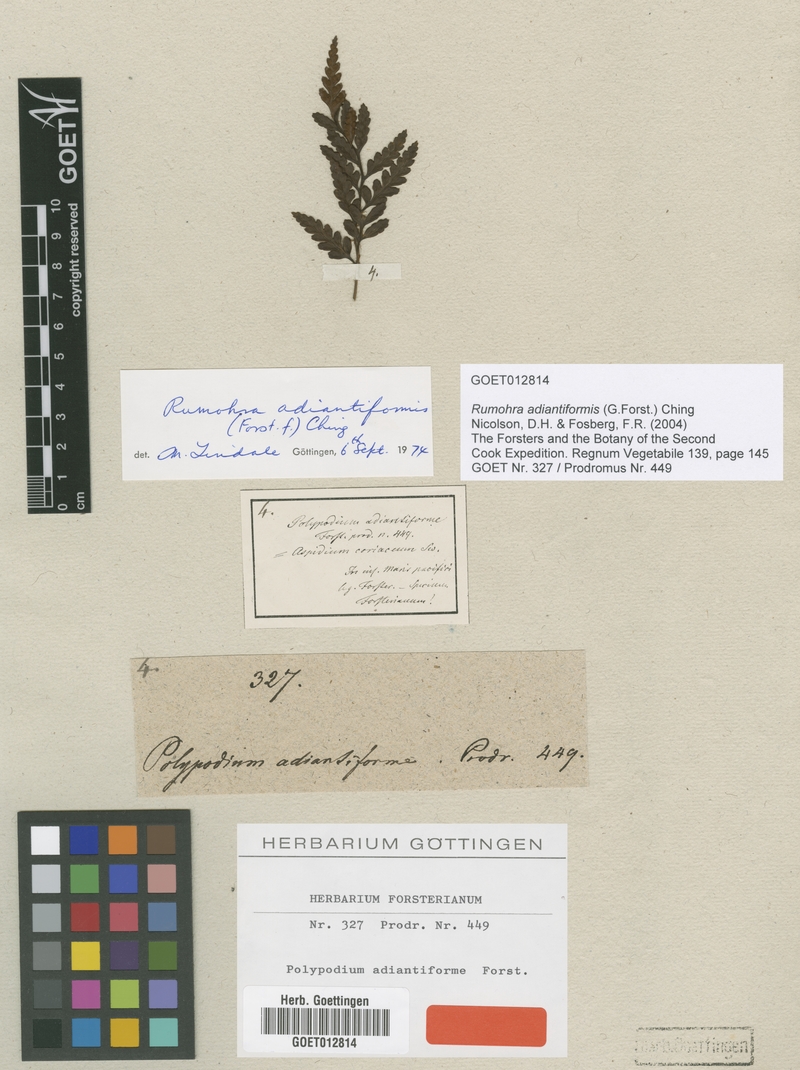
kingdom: Plantae
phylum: Tracheophyta
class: Polypodiopsida
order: Polypodiales
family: Dryopteridaceae
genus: Rumohra
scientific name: Rumohra adiantiformis
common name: Leather fern
